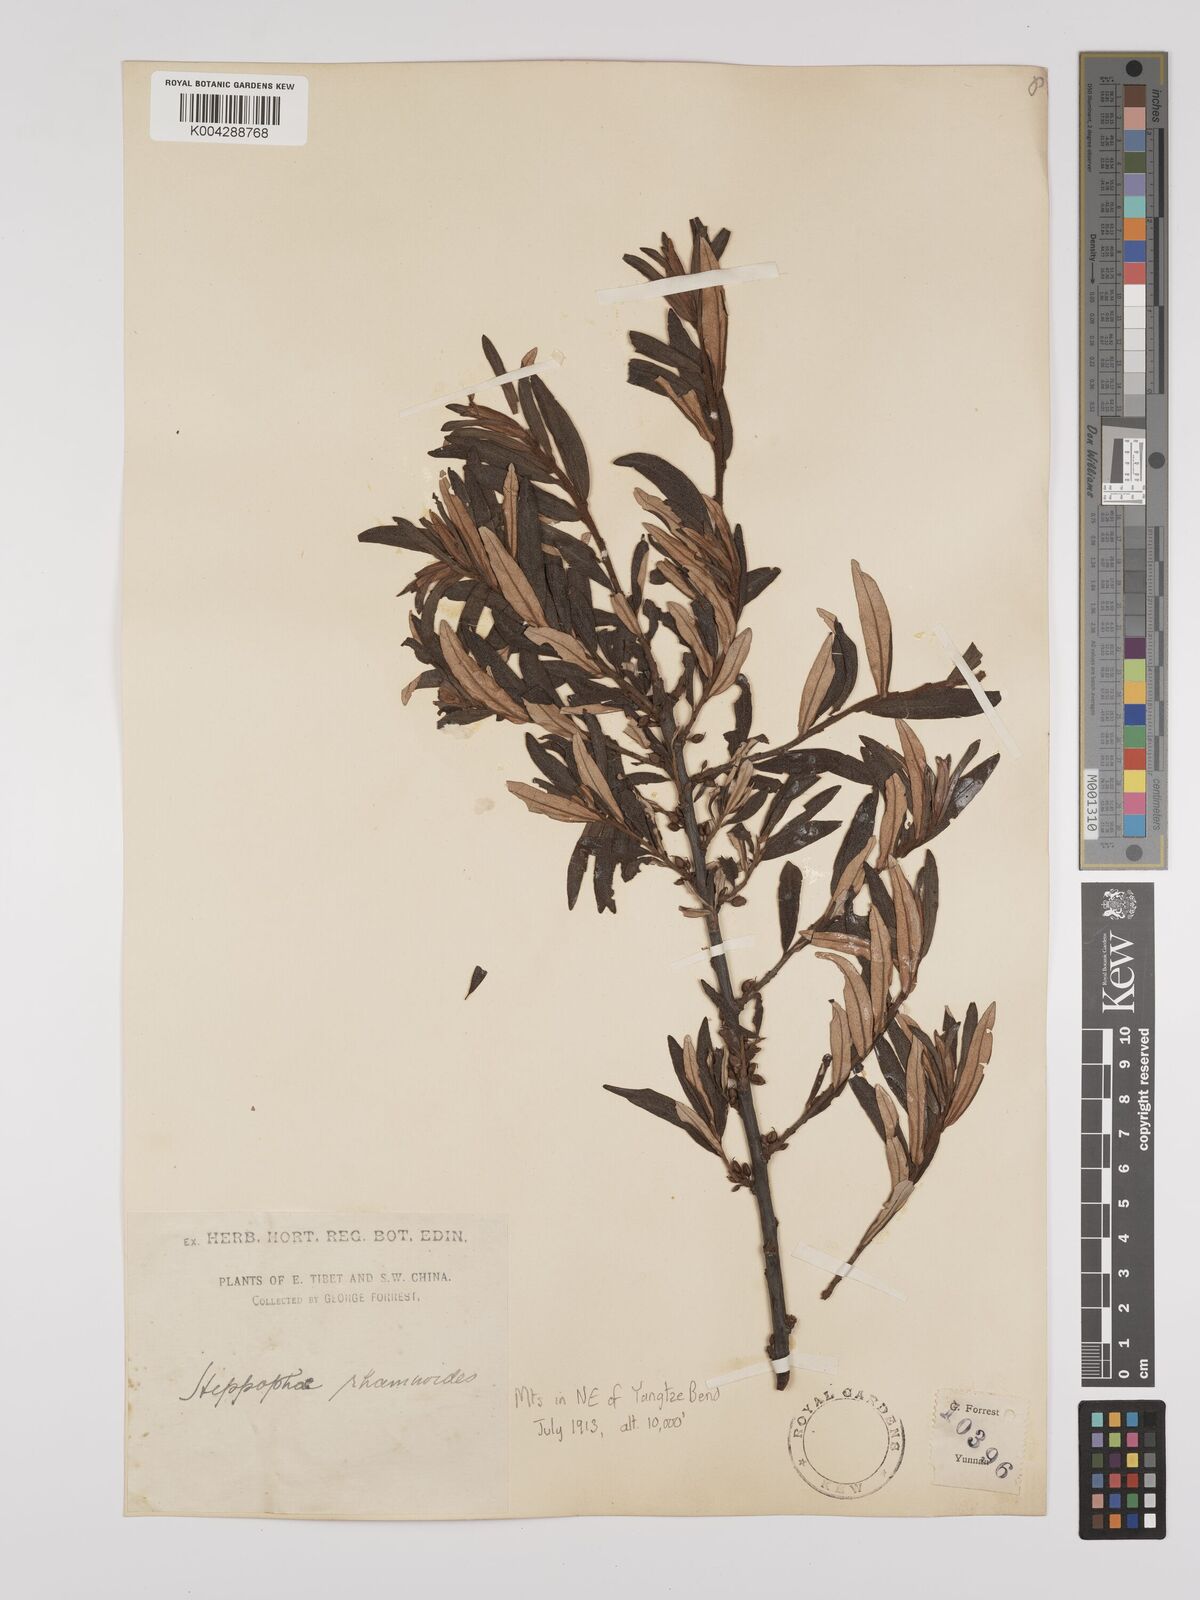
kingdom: Plantae
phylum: Tracheophyta
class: Magnoliopsida
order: Rosales
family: Elaeagnaceae
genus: Hippophae
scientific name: Hippophae rhamnoides
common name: Sea-buckthorn
